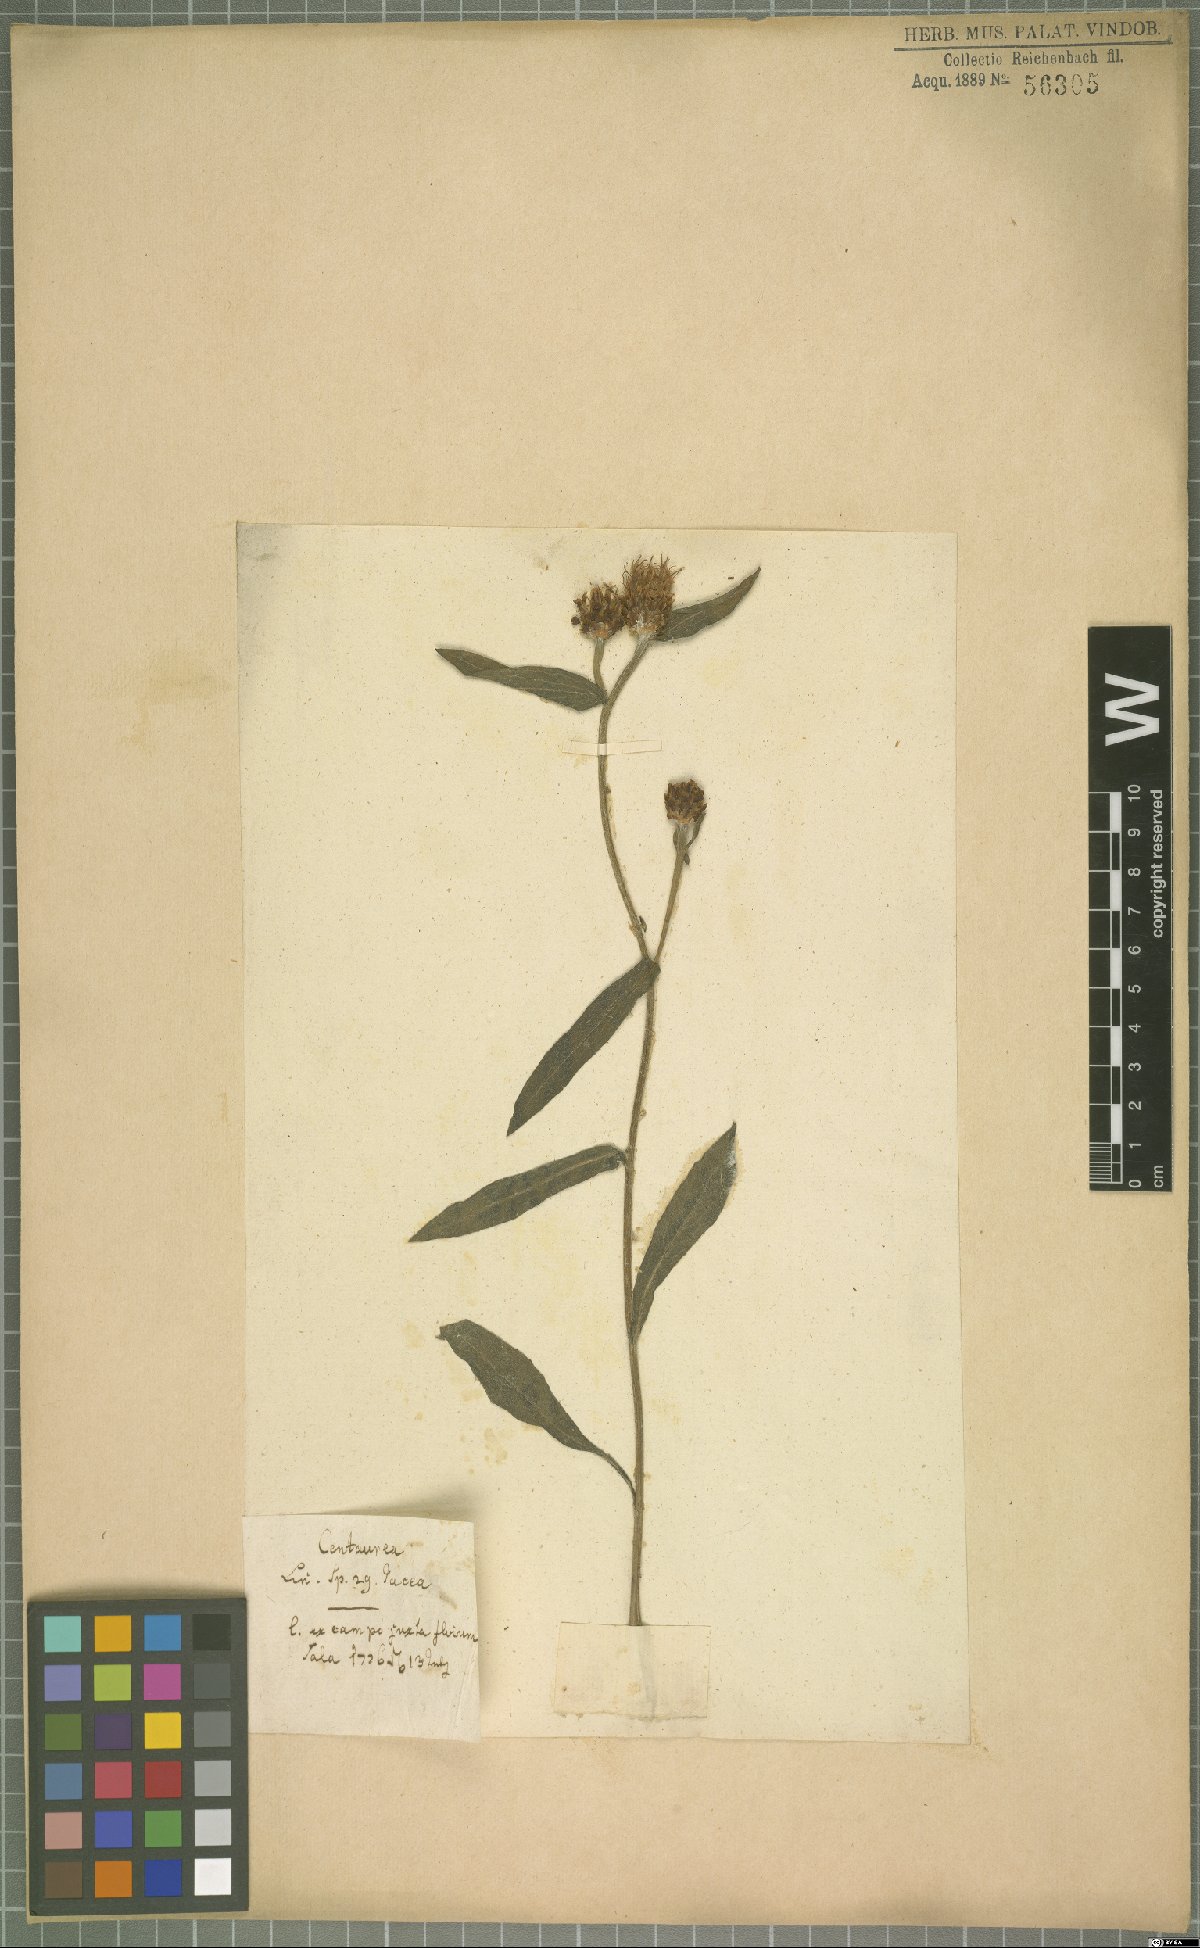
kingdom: Plantae
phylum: Tracheophyta
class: Magnoliopsida
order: Asterales
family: Asteraceae
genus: Centaurea
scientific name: Centaurea jacea
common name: Brown knapweed
